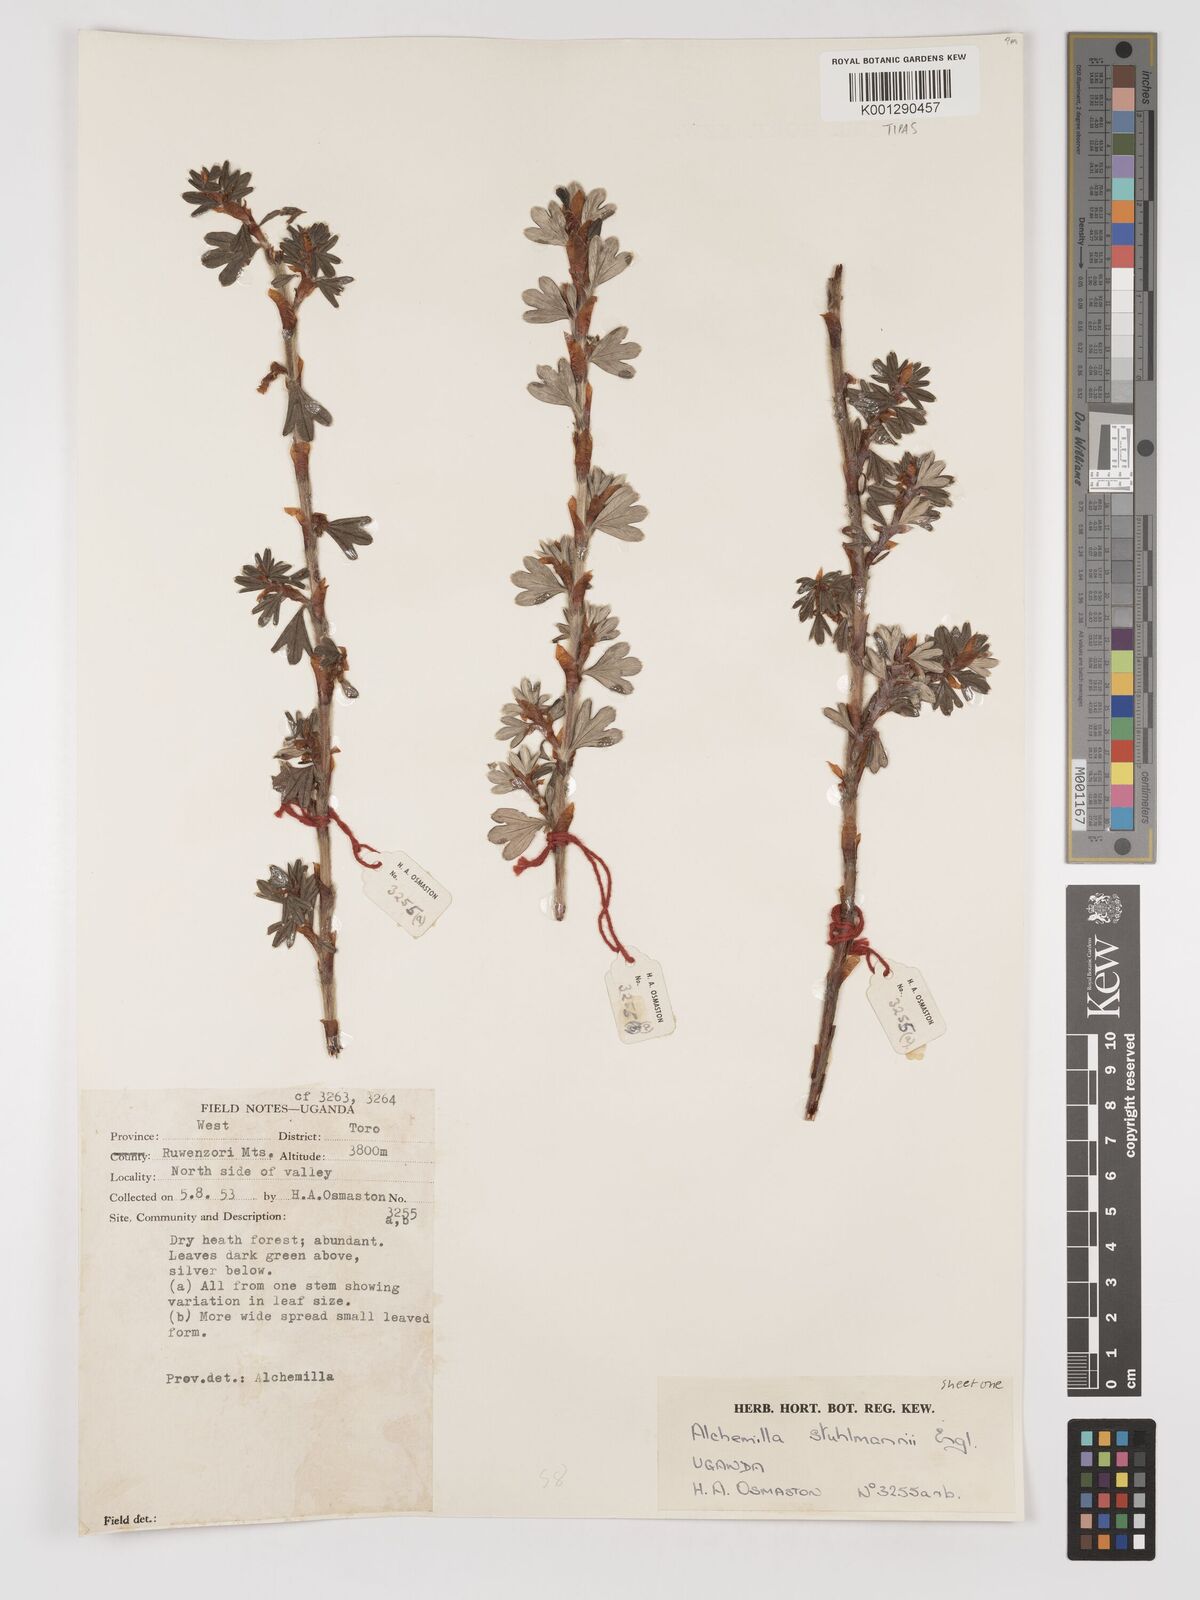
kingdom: Plantae
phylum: Tracheophyta
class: Magnoliopsida
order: Rosales
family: Rosaceae
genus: Alchemilla
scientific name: Alchemilla stuhlmannii
